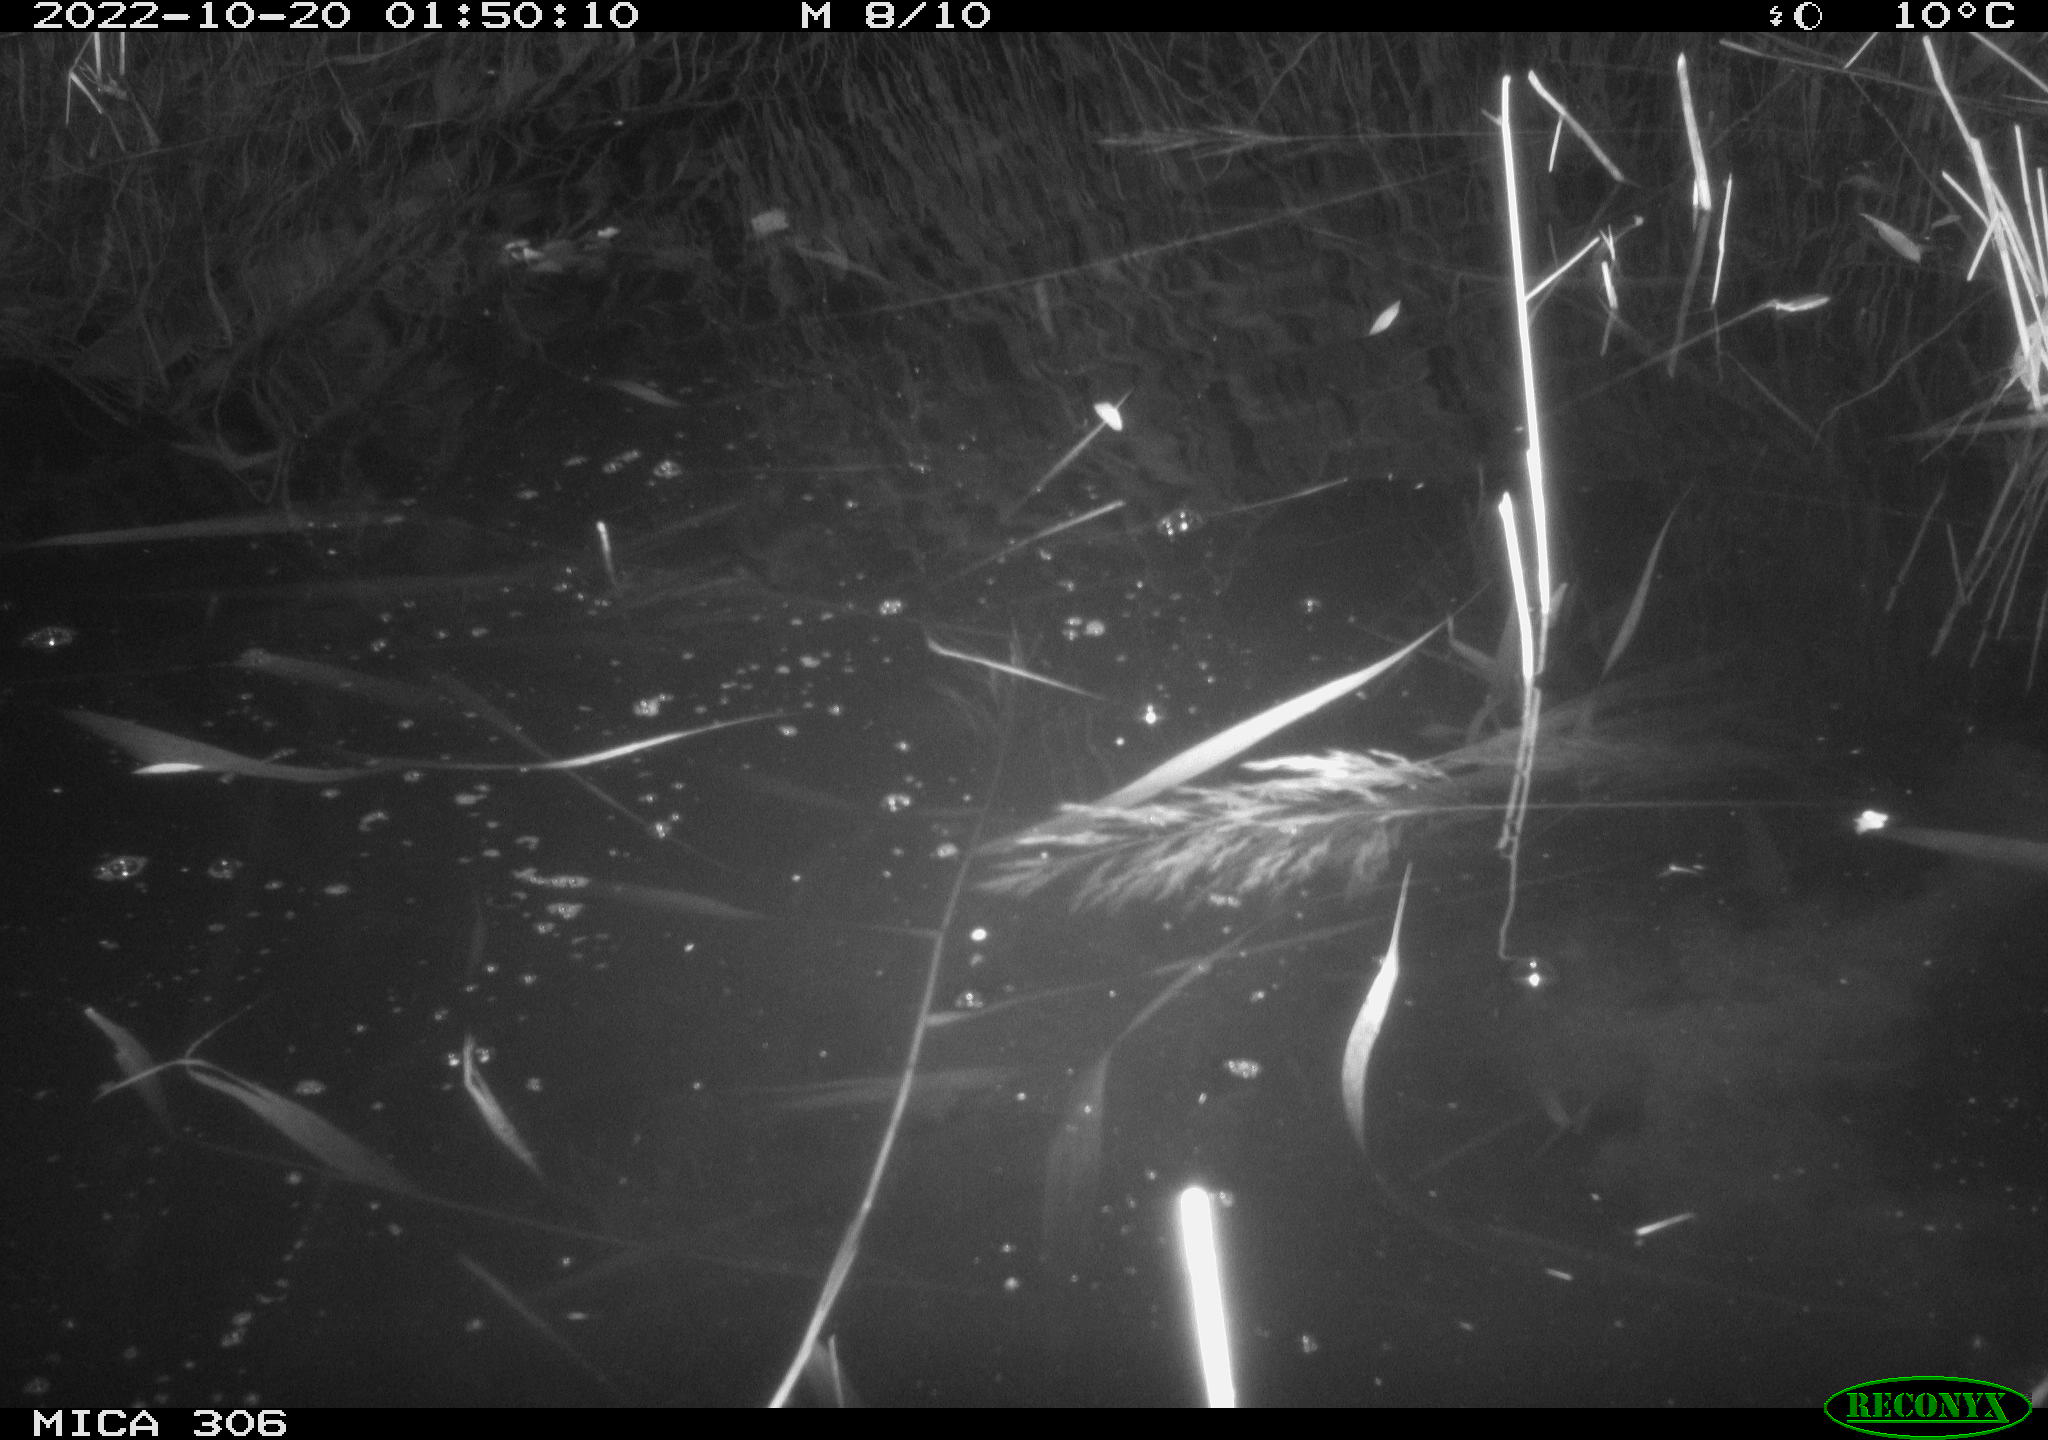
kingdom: Animalia
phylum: Chordata
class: Mammalia
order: Rodentia
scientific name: Rodentia
